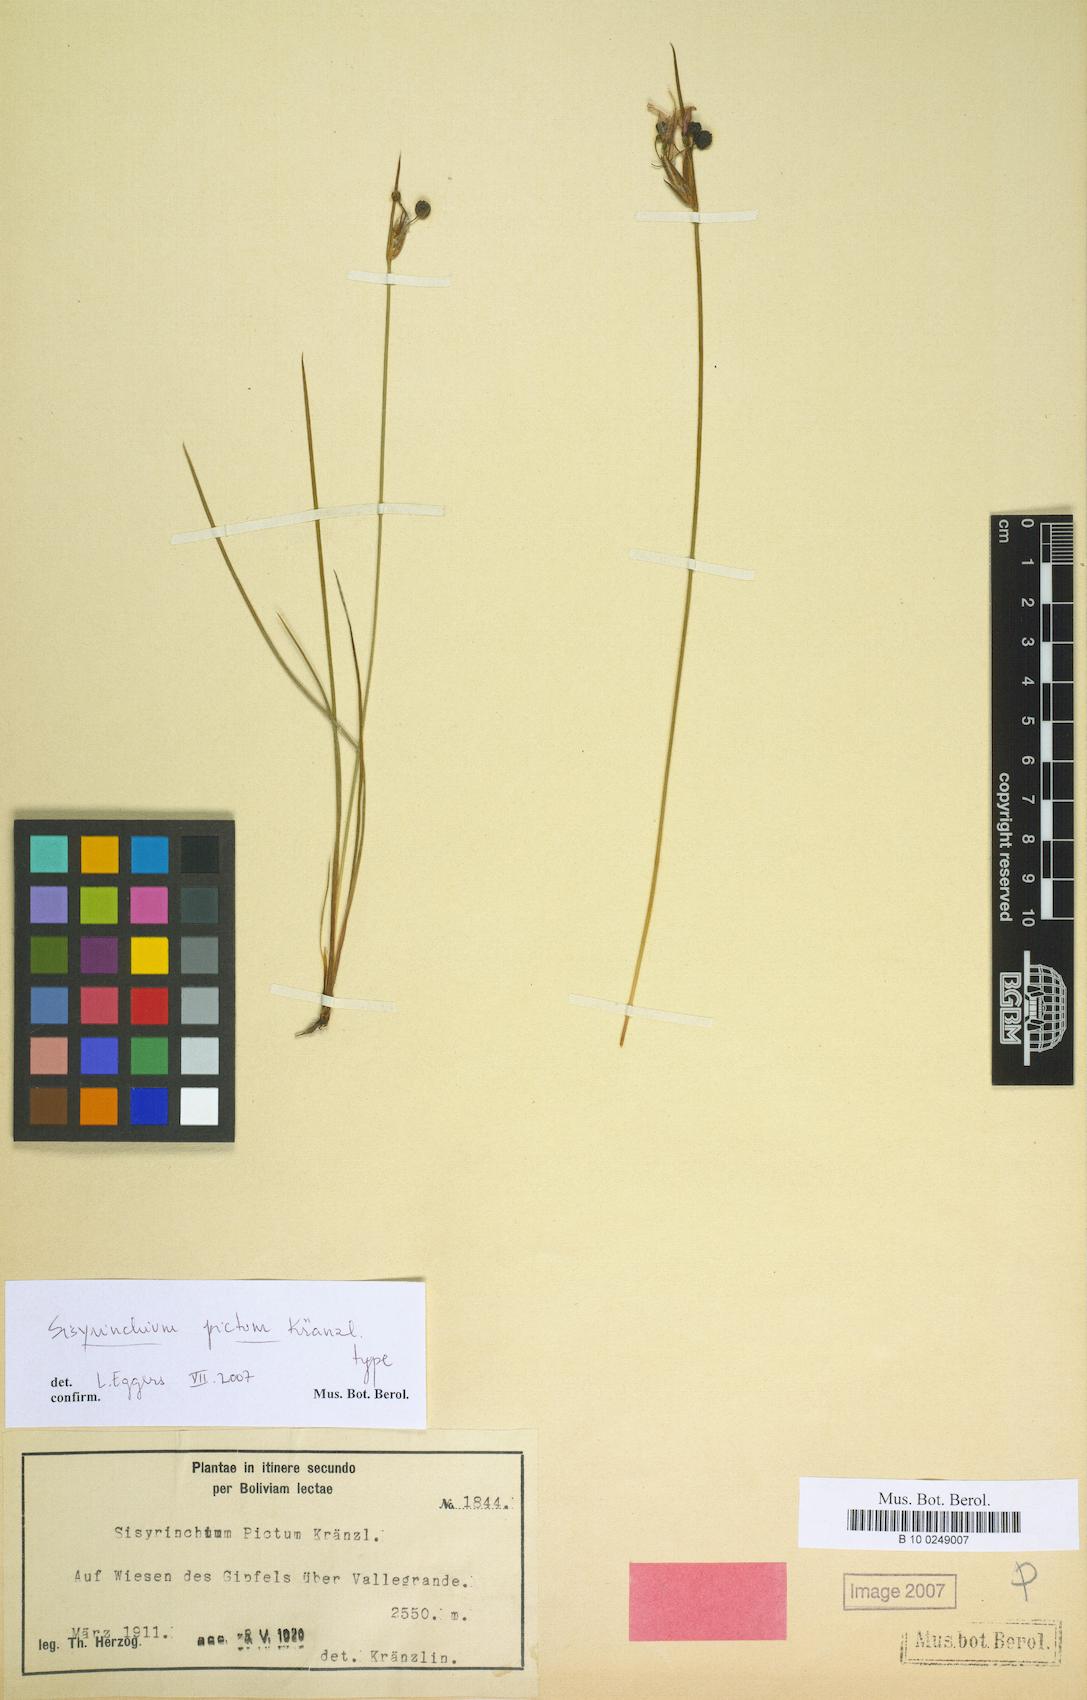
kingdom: Plantae
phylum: Tracheophyta
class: Liliopsida
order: Asparagales
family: Iridaceae
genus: Sisyrinchium
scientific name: Sisyrinchium laterale
